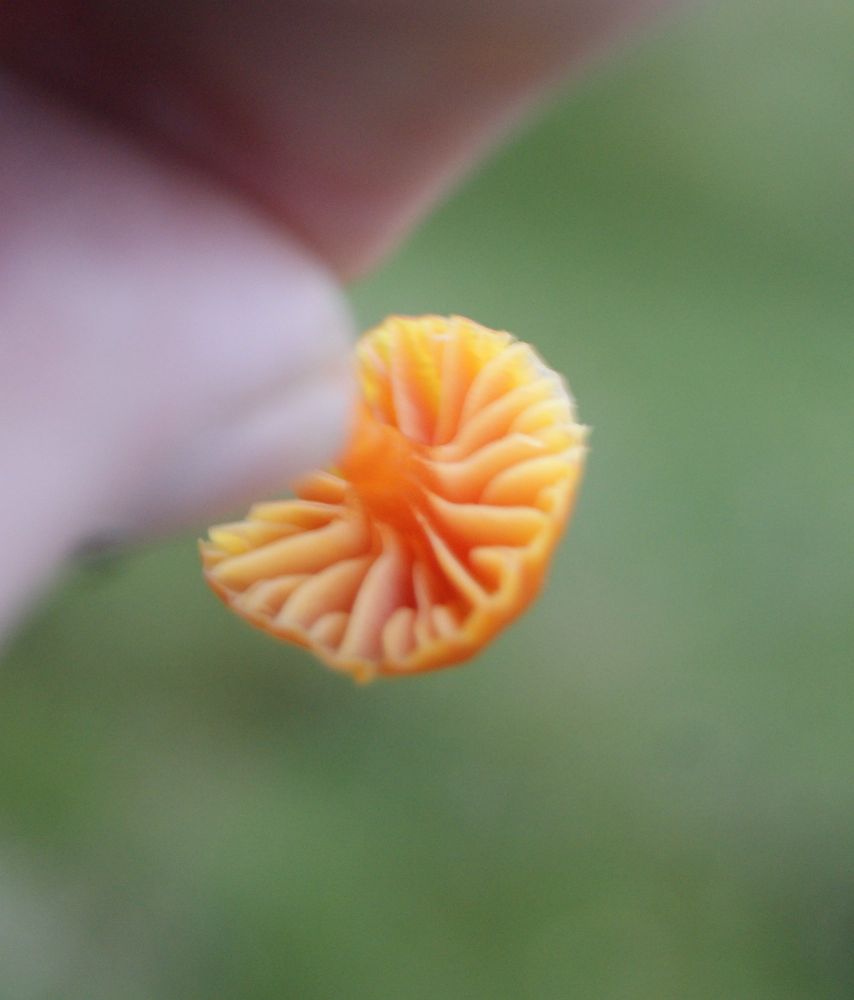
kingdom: Fungi
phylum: Basidiomycota
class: Agaricomycetes
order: Agaricales
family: Hygrophoraceae
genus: Hygrocybe
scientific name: Hygrocybe mucronella
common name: bitter vokshat
